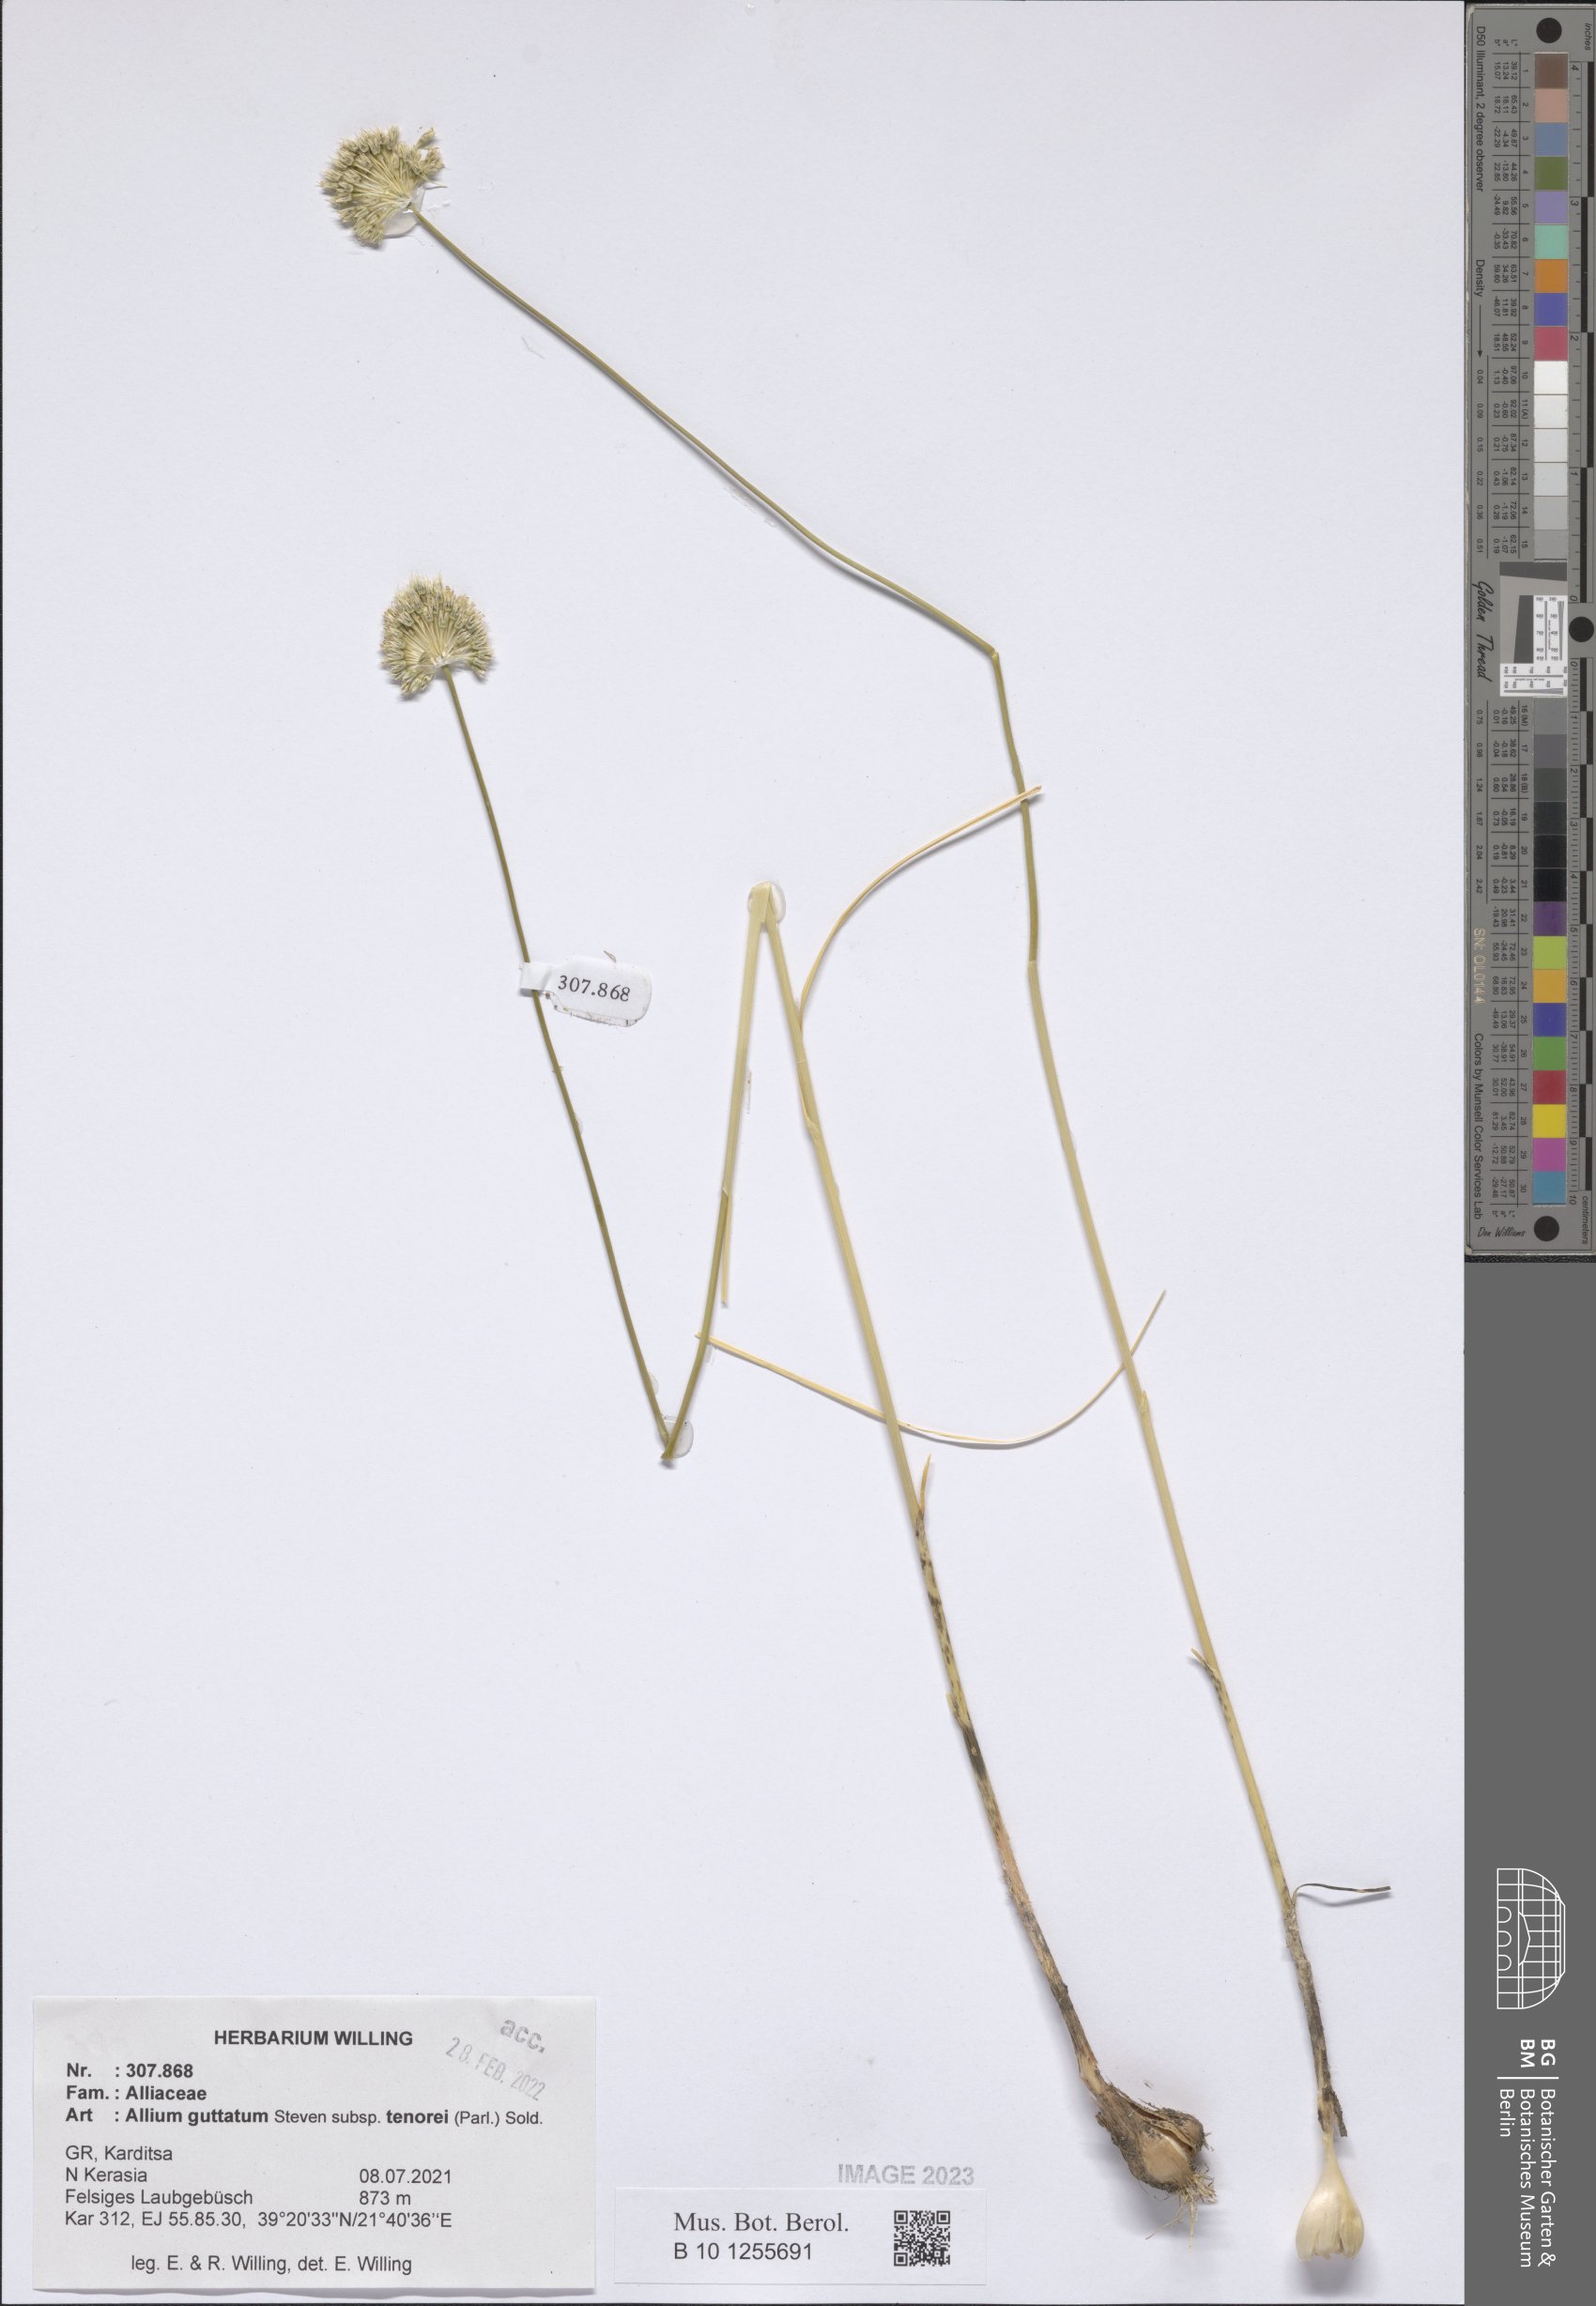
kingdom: Plantae
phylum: Tracheophyta
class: Liliopsida
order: Asparagales
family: Amaryllidaceae
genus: Allium
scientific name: Allium sardoum
